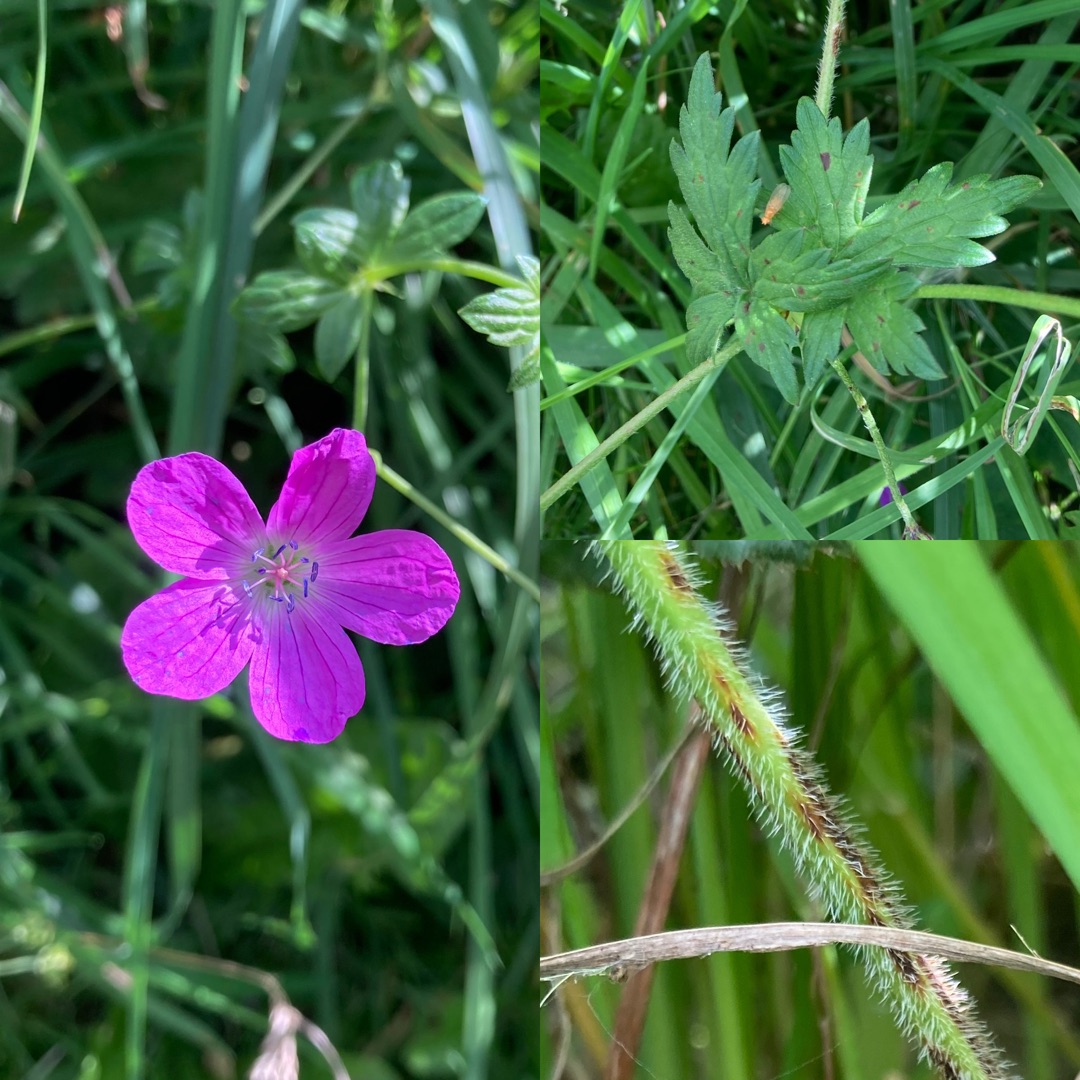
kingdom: Plantae
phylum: Tracheophyta
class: Magnoliopsida
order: Geraniales
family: Geraniaceae
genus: Geranium
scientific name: Geranium palustre
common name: Kær-storkenæb
